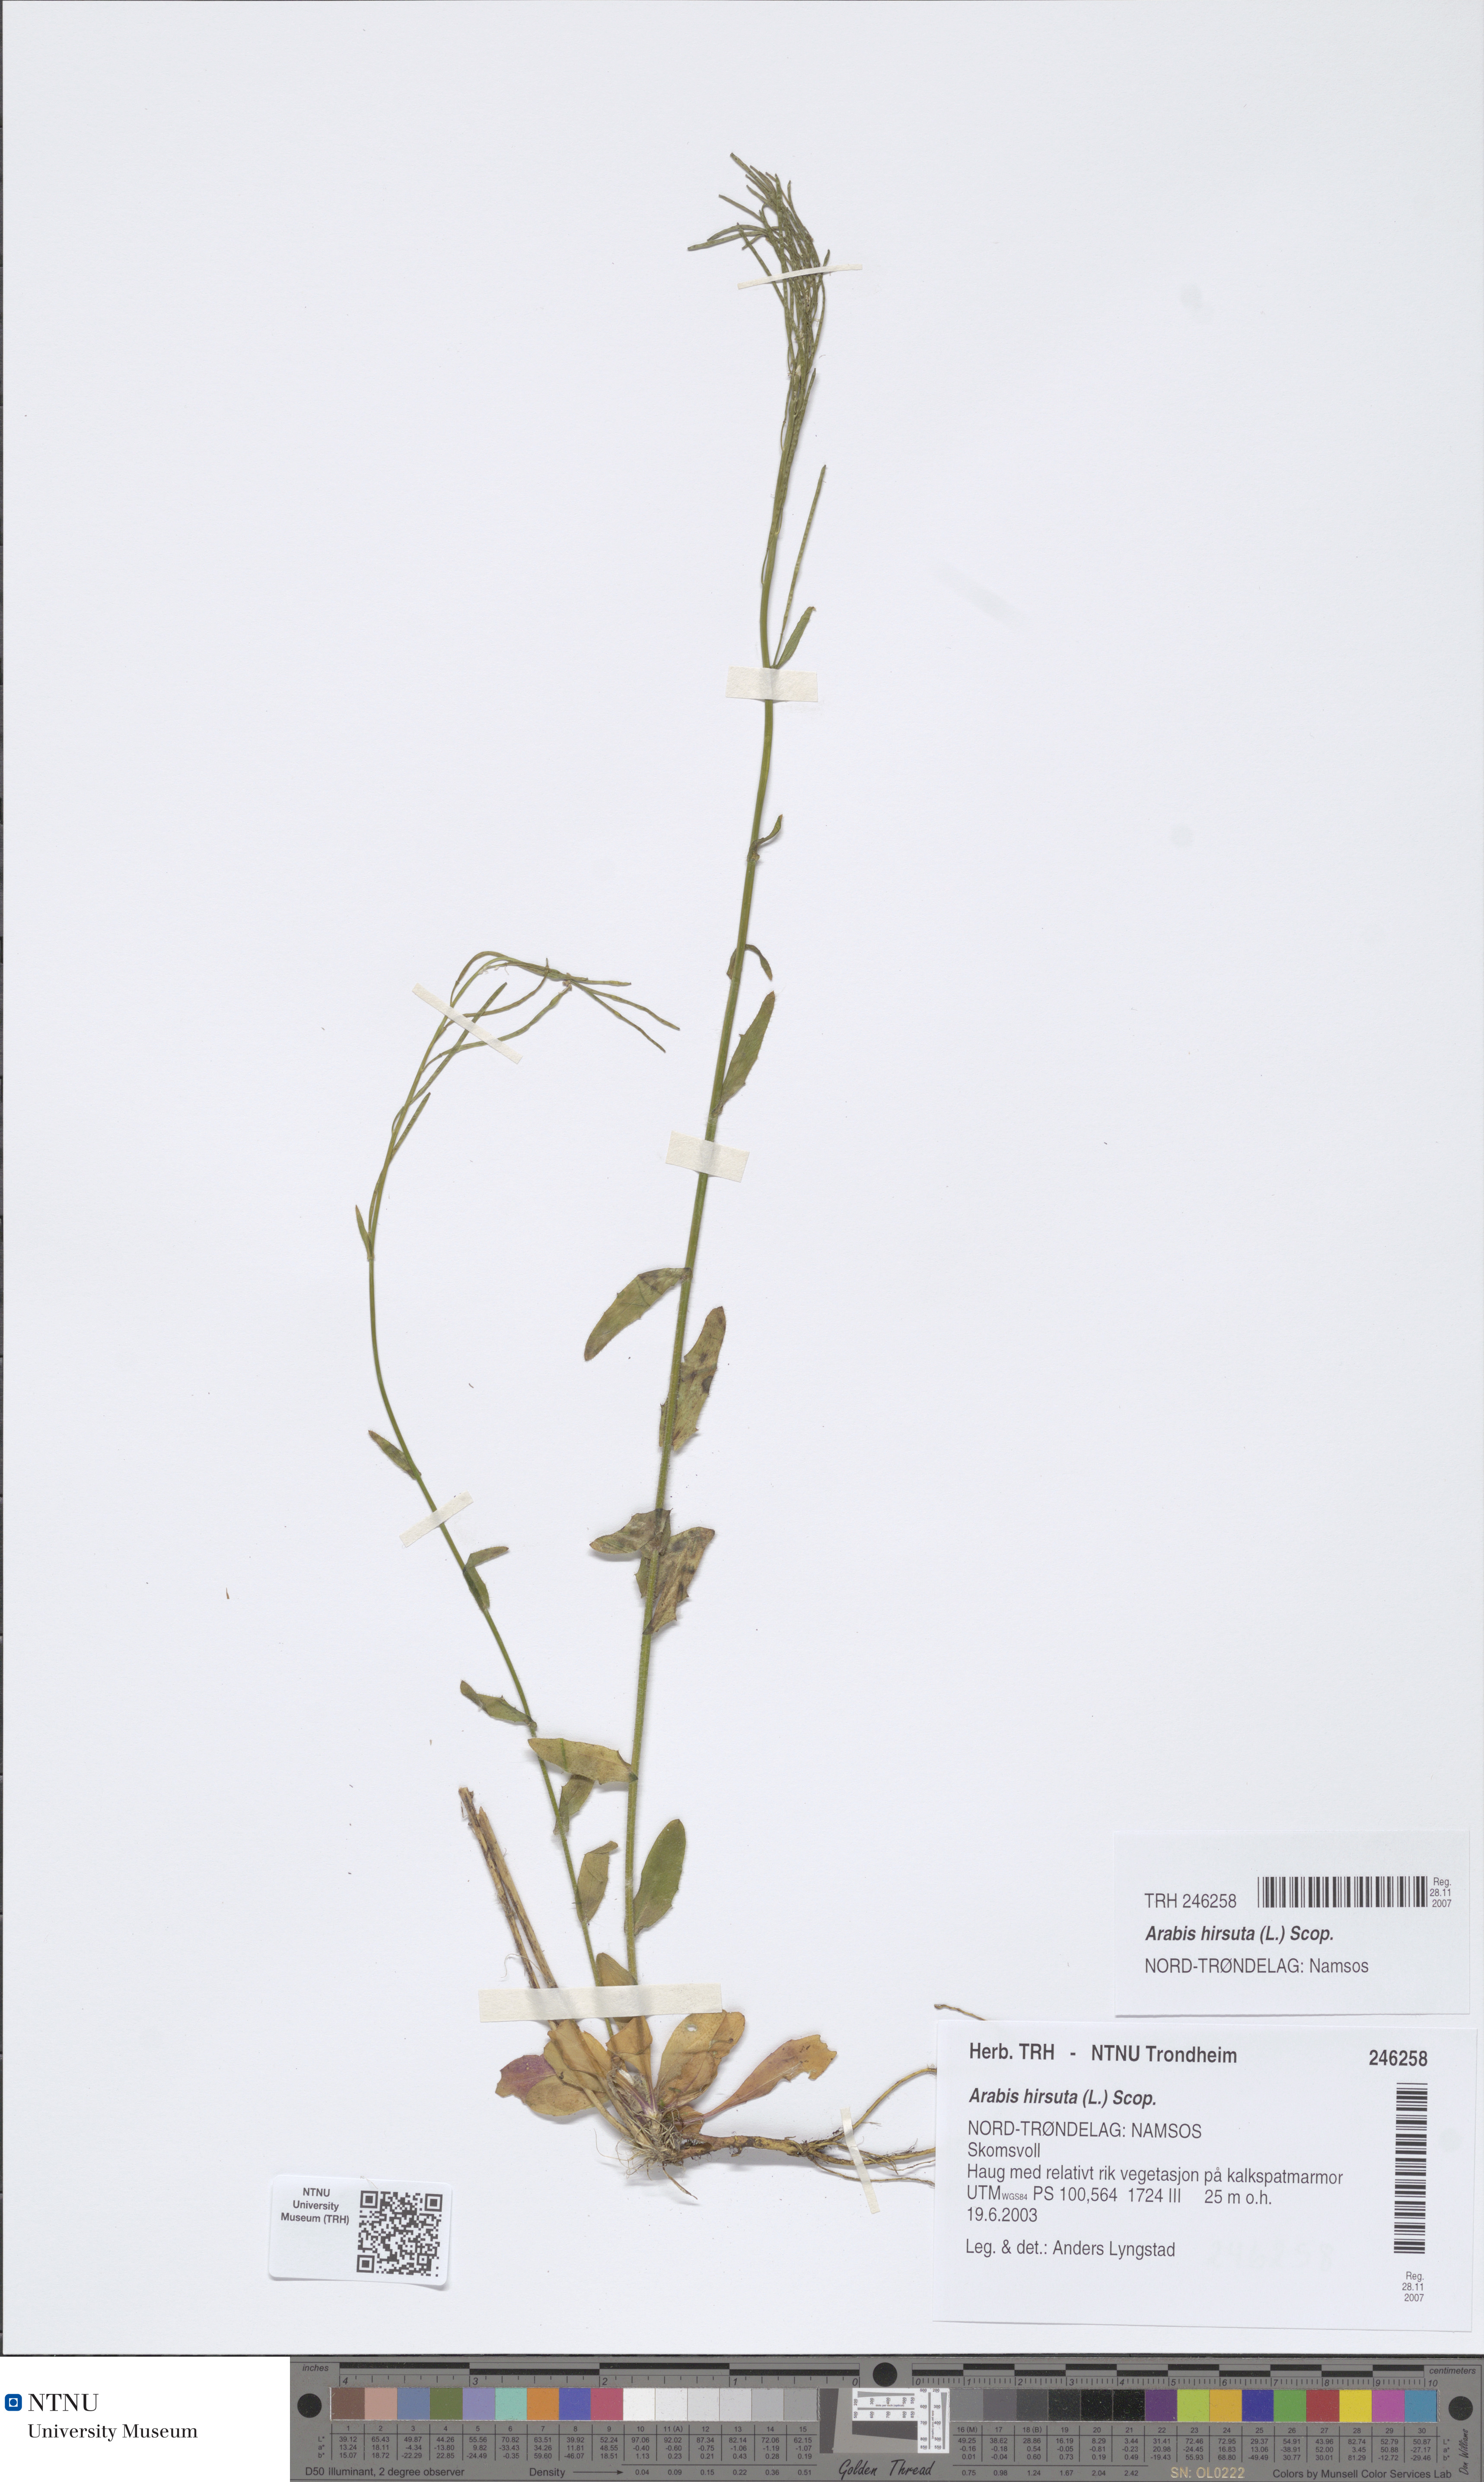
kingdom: Plantae
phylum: Tracheophyta
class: Magnoliopsida
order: Brassicales
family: Brassicaceae
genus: Arabis
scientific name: Arabis hirsuta
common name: Hairy rock-cress
